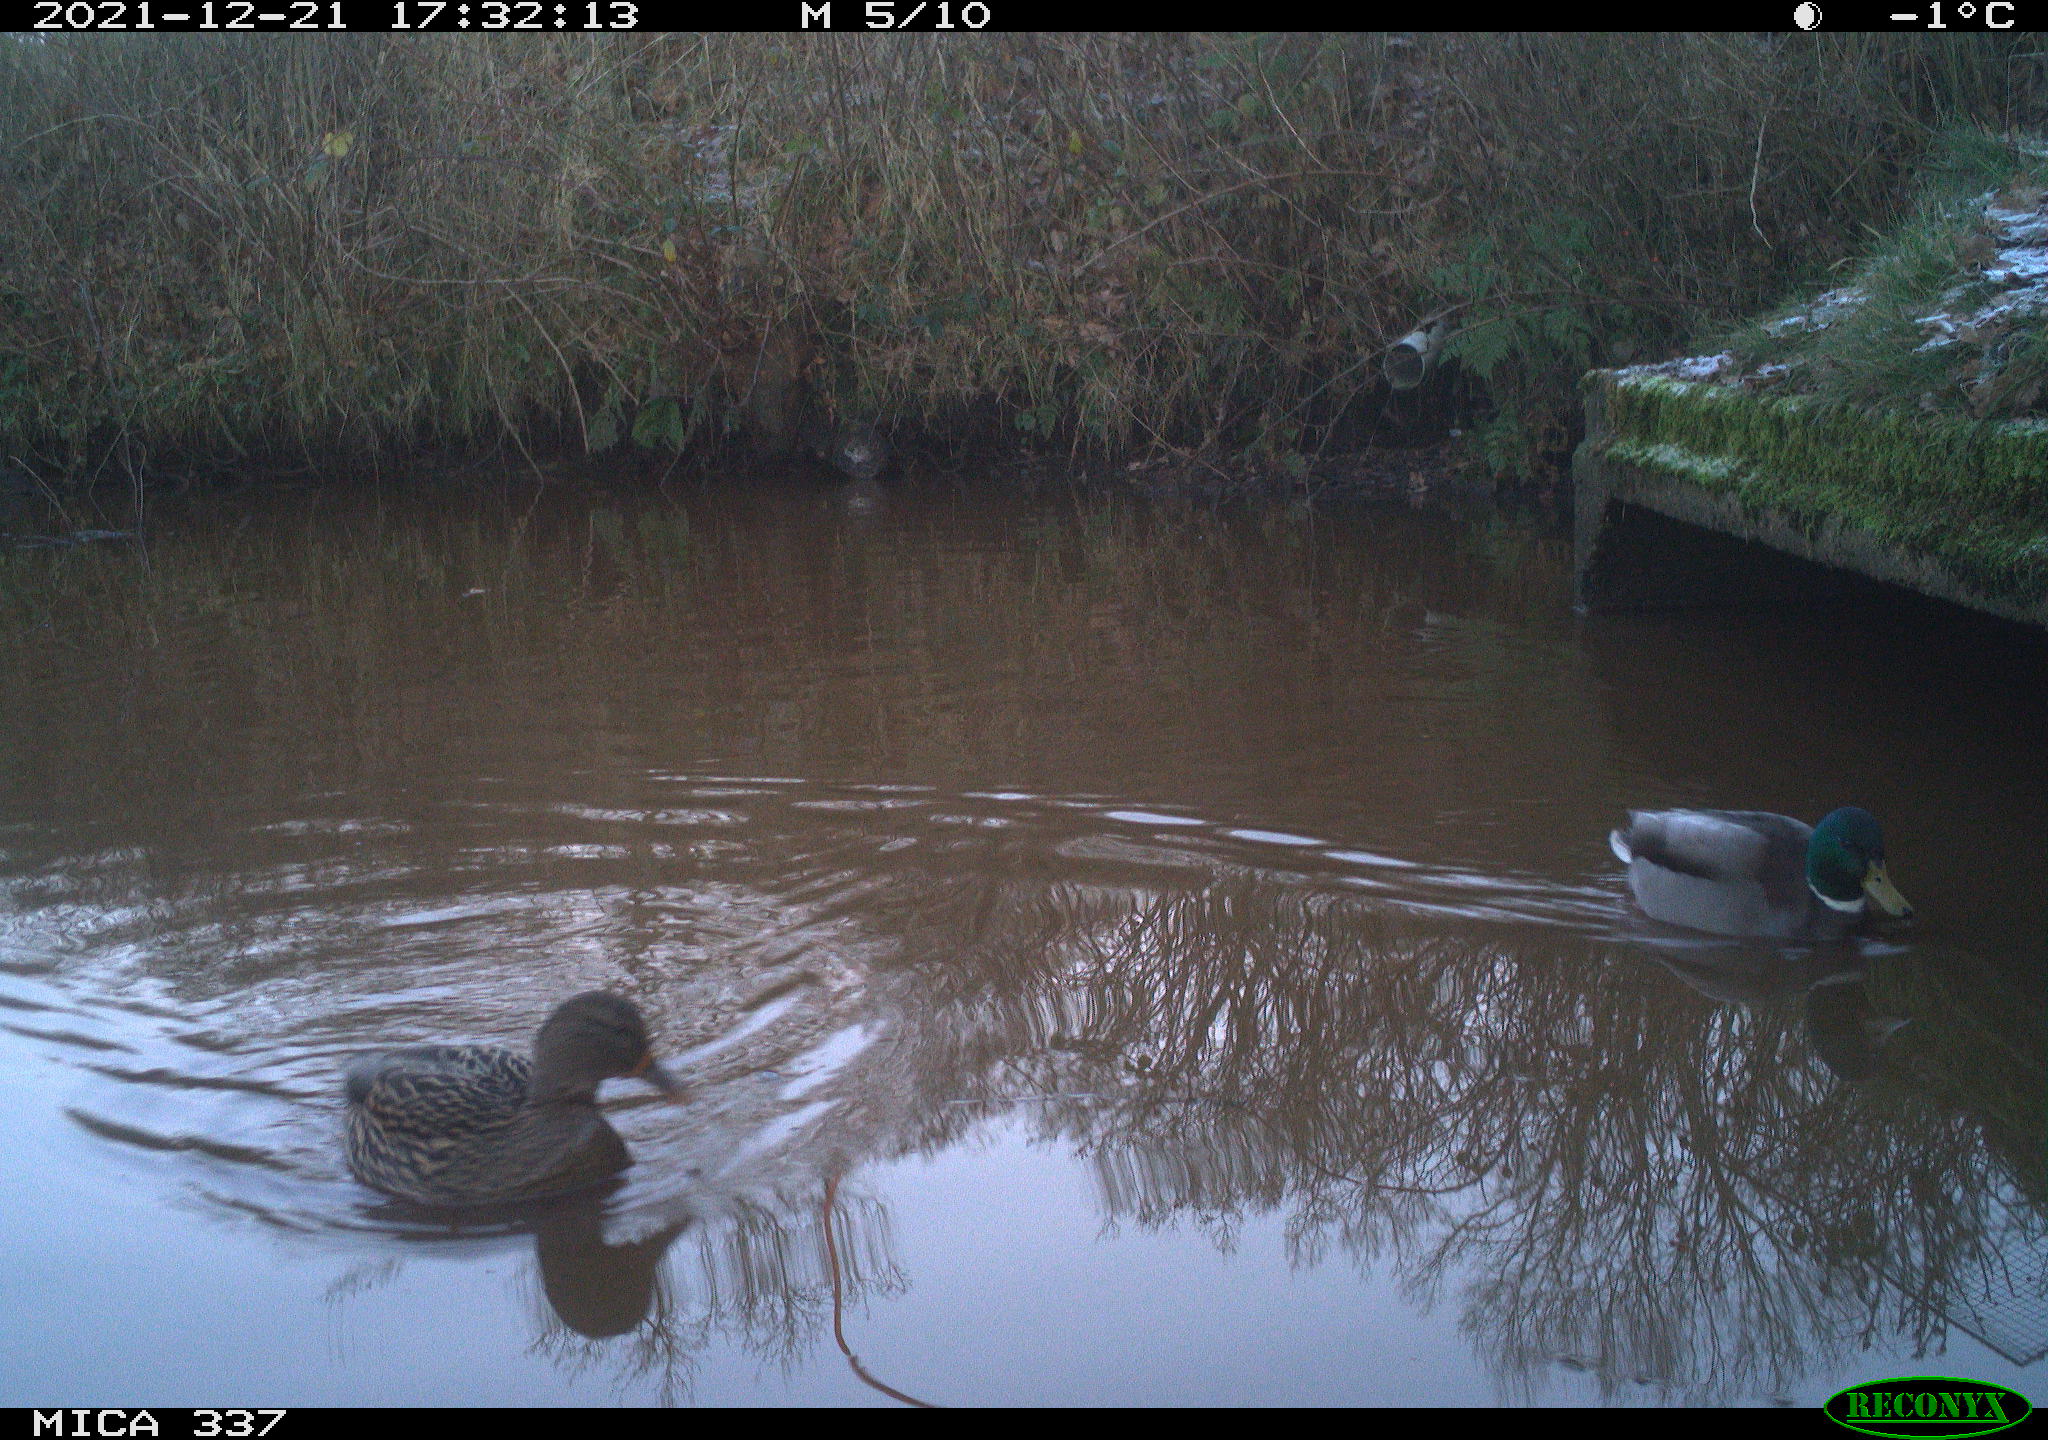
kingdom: Animalia
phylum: Chordata
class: Aves
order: Anseriformes
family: Anatidae
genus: Anas
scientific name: Anas platyrhynchos
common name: Mallard
